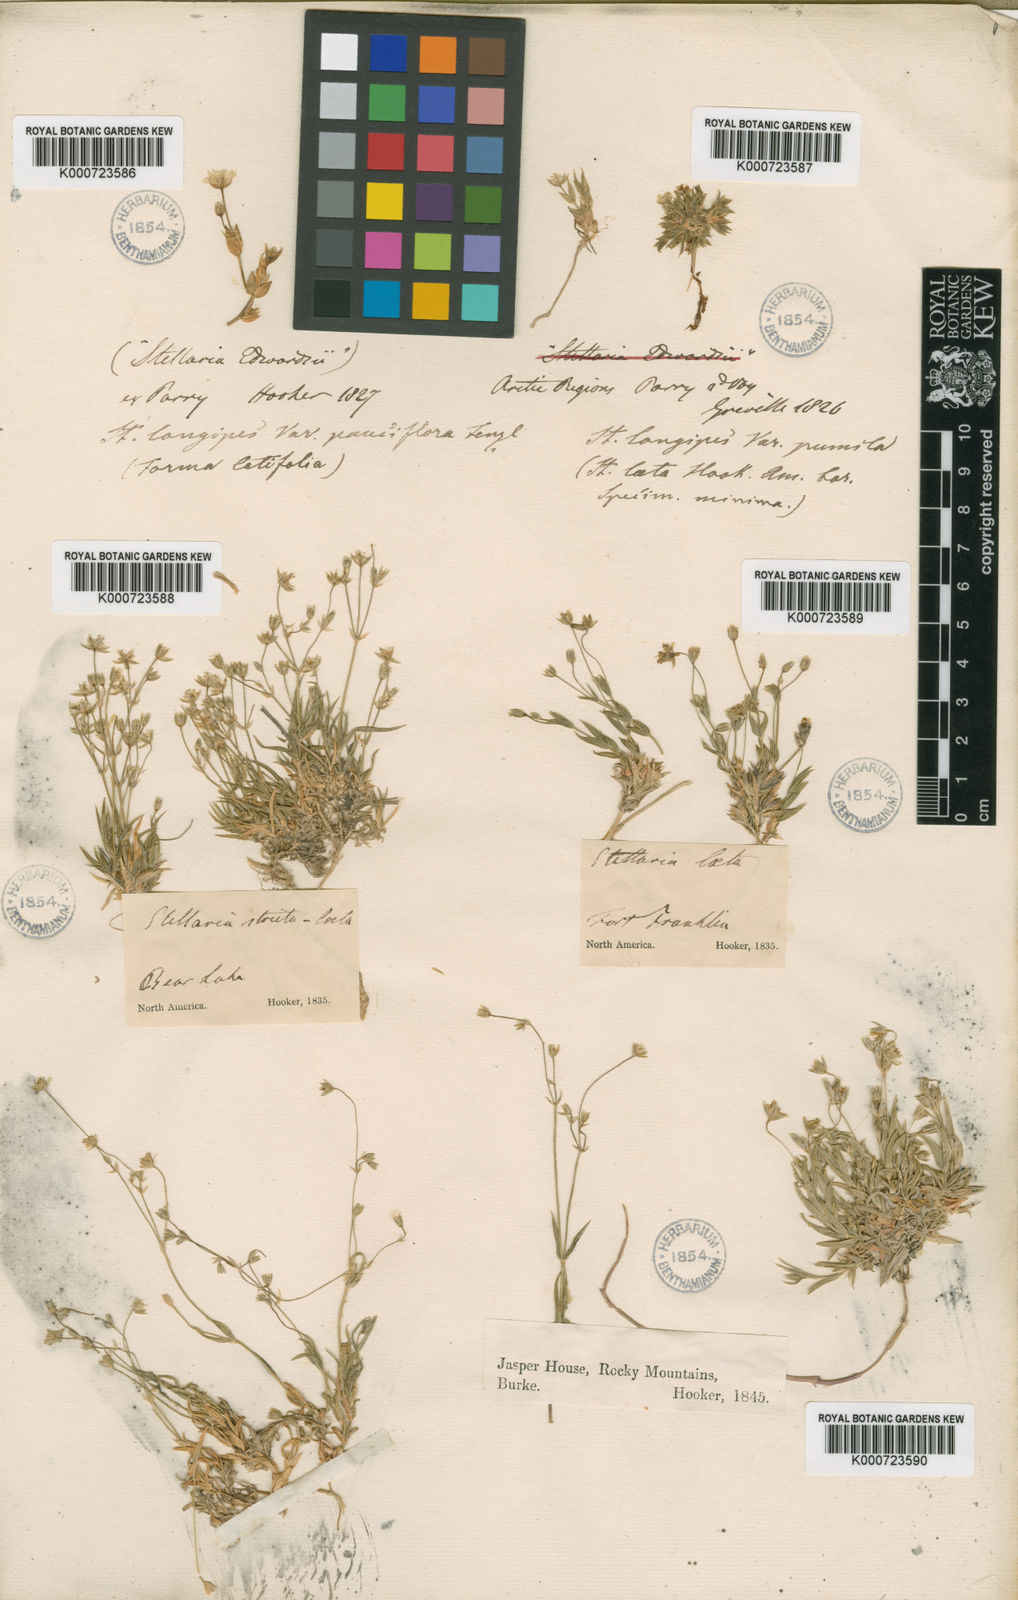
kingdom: Plantae
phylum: Tracheophyta
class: Magnoliopsida
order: Caryophyllales
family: Caryophyllaceae
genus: Stellaria
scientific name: Stellaria longipes
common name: Goldie's starwort
